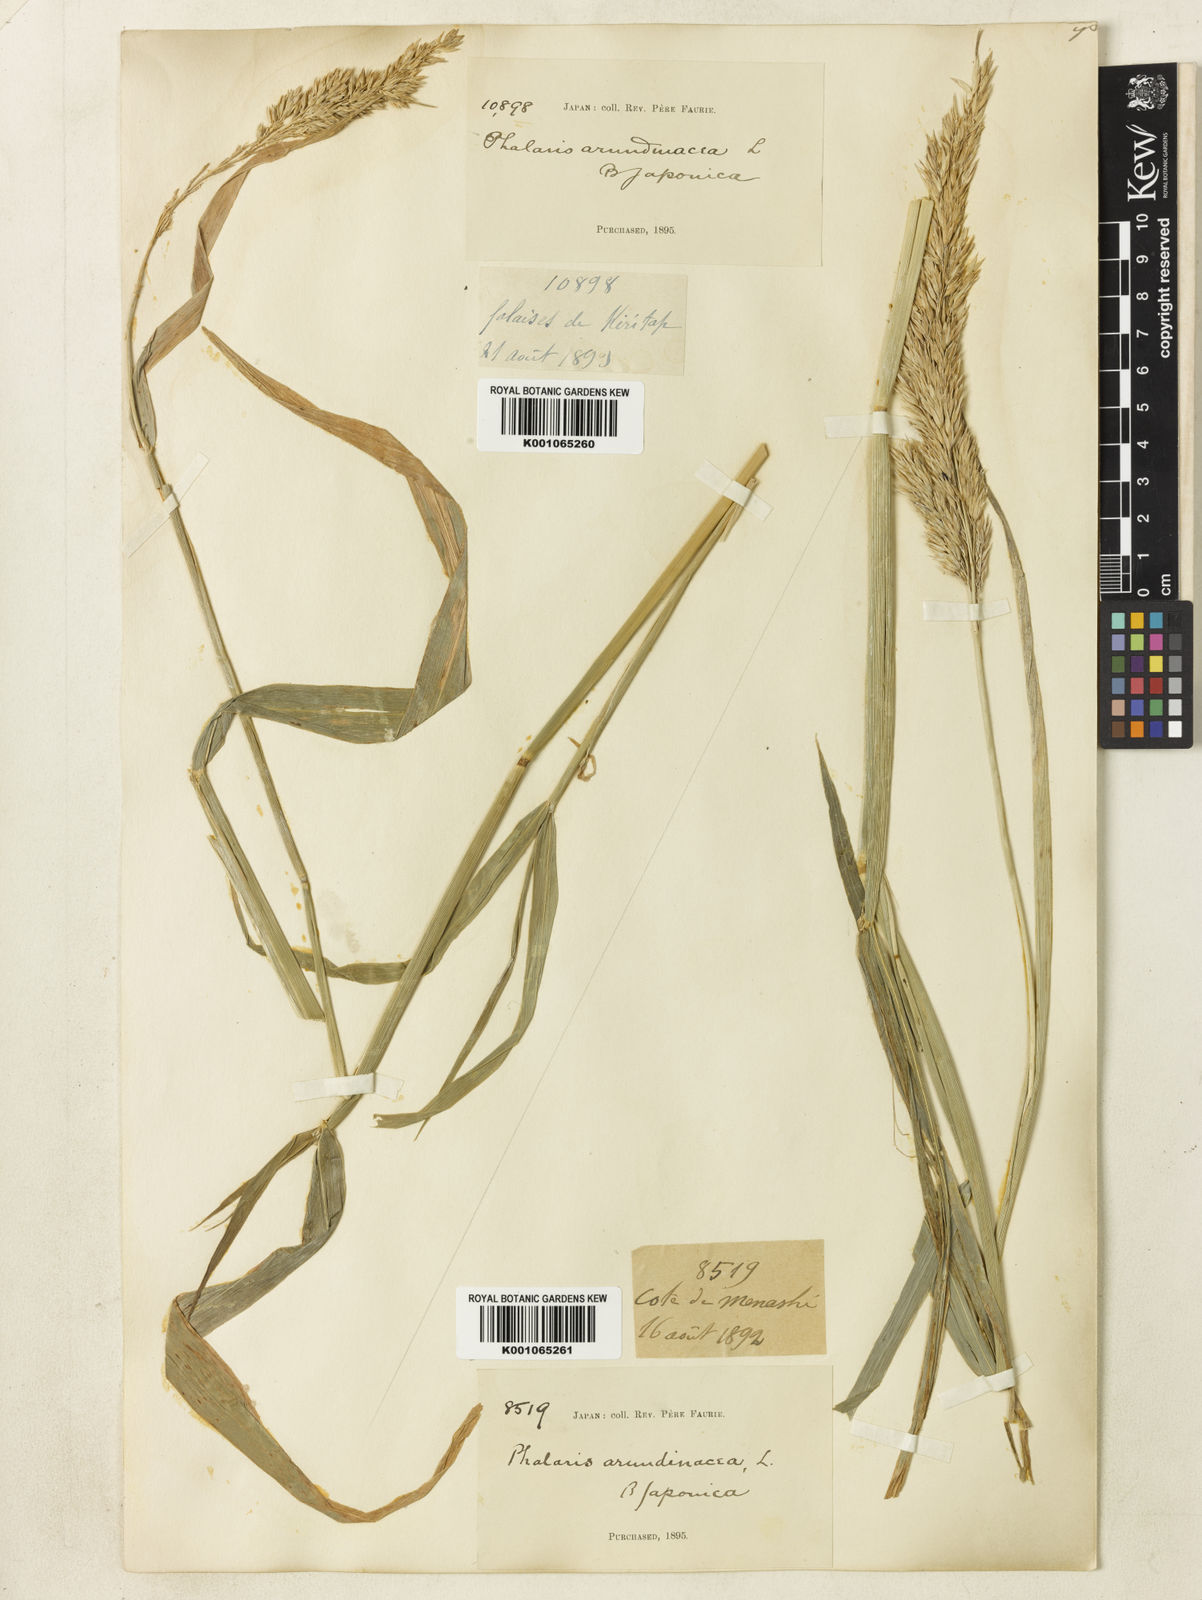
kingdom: Plantae
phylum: Tracheophyta
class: Liliopsida
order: Poales
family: Poaceae
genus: Phalaris
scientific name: Phalaris arundinacea
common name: Reed canary-grass
